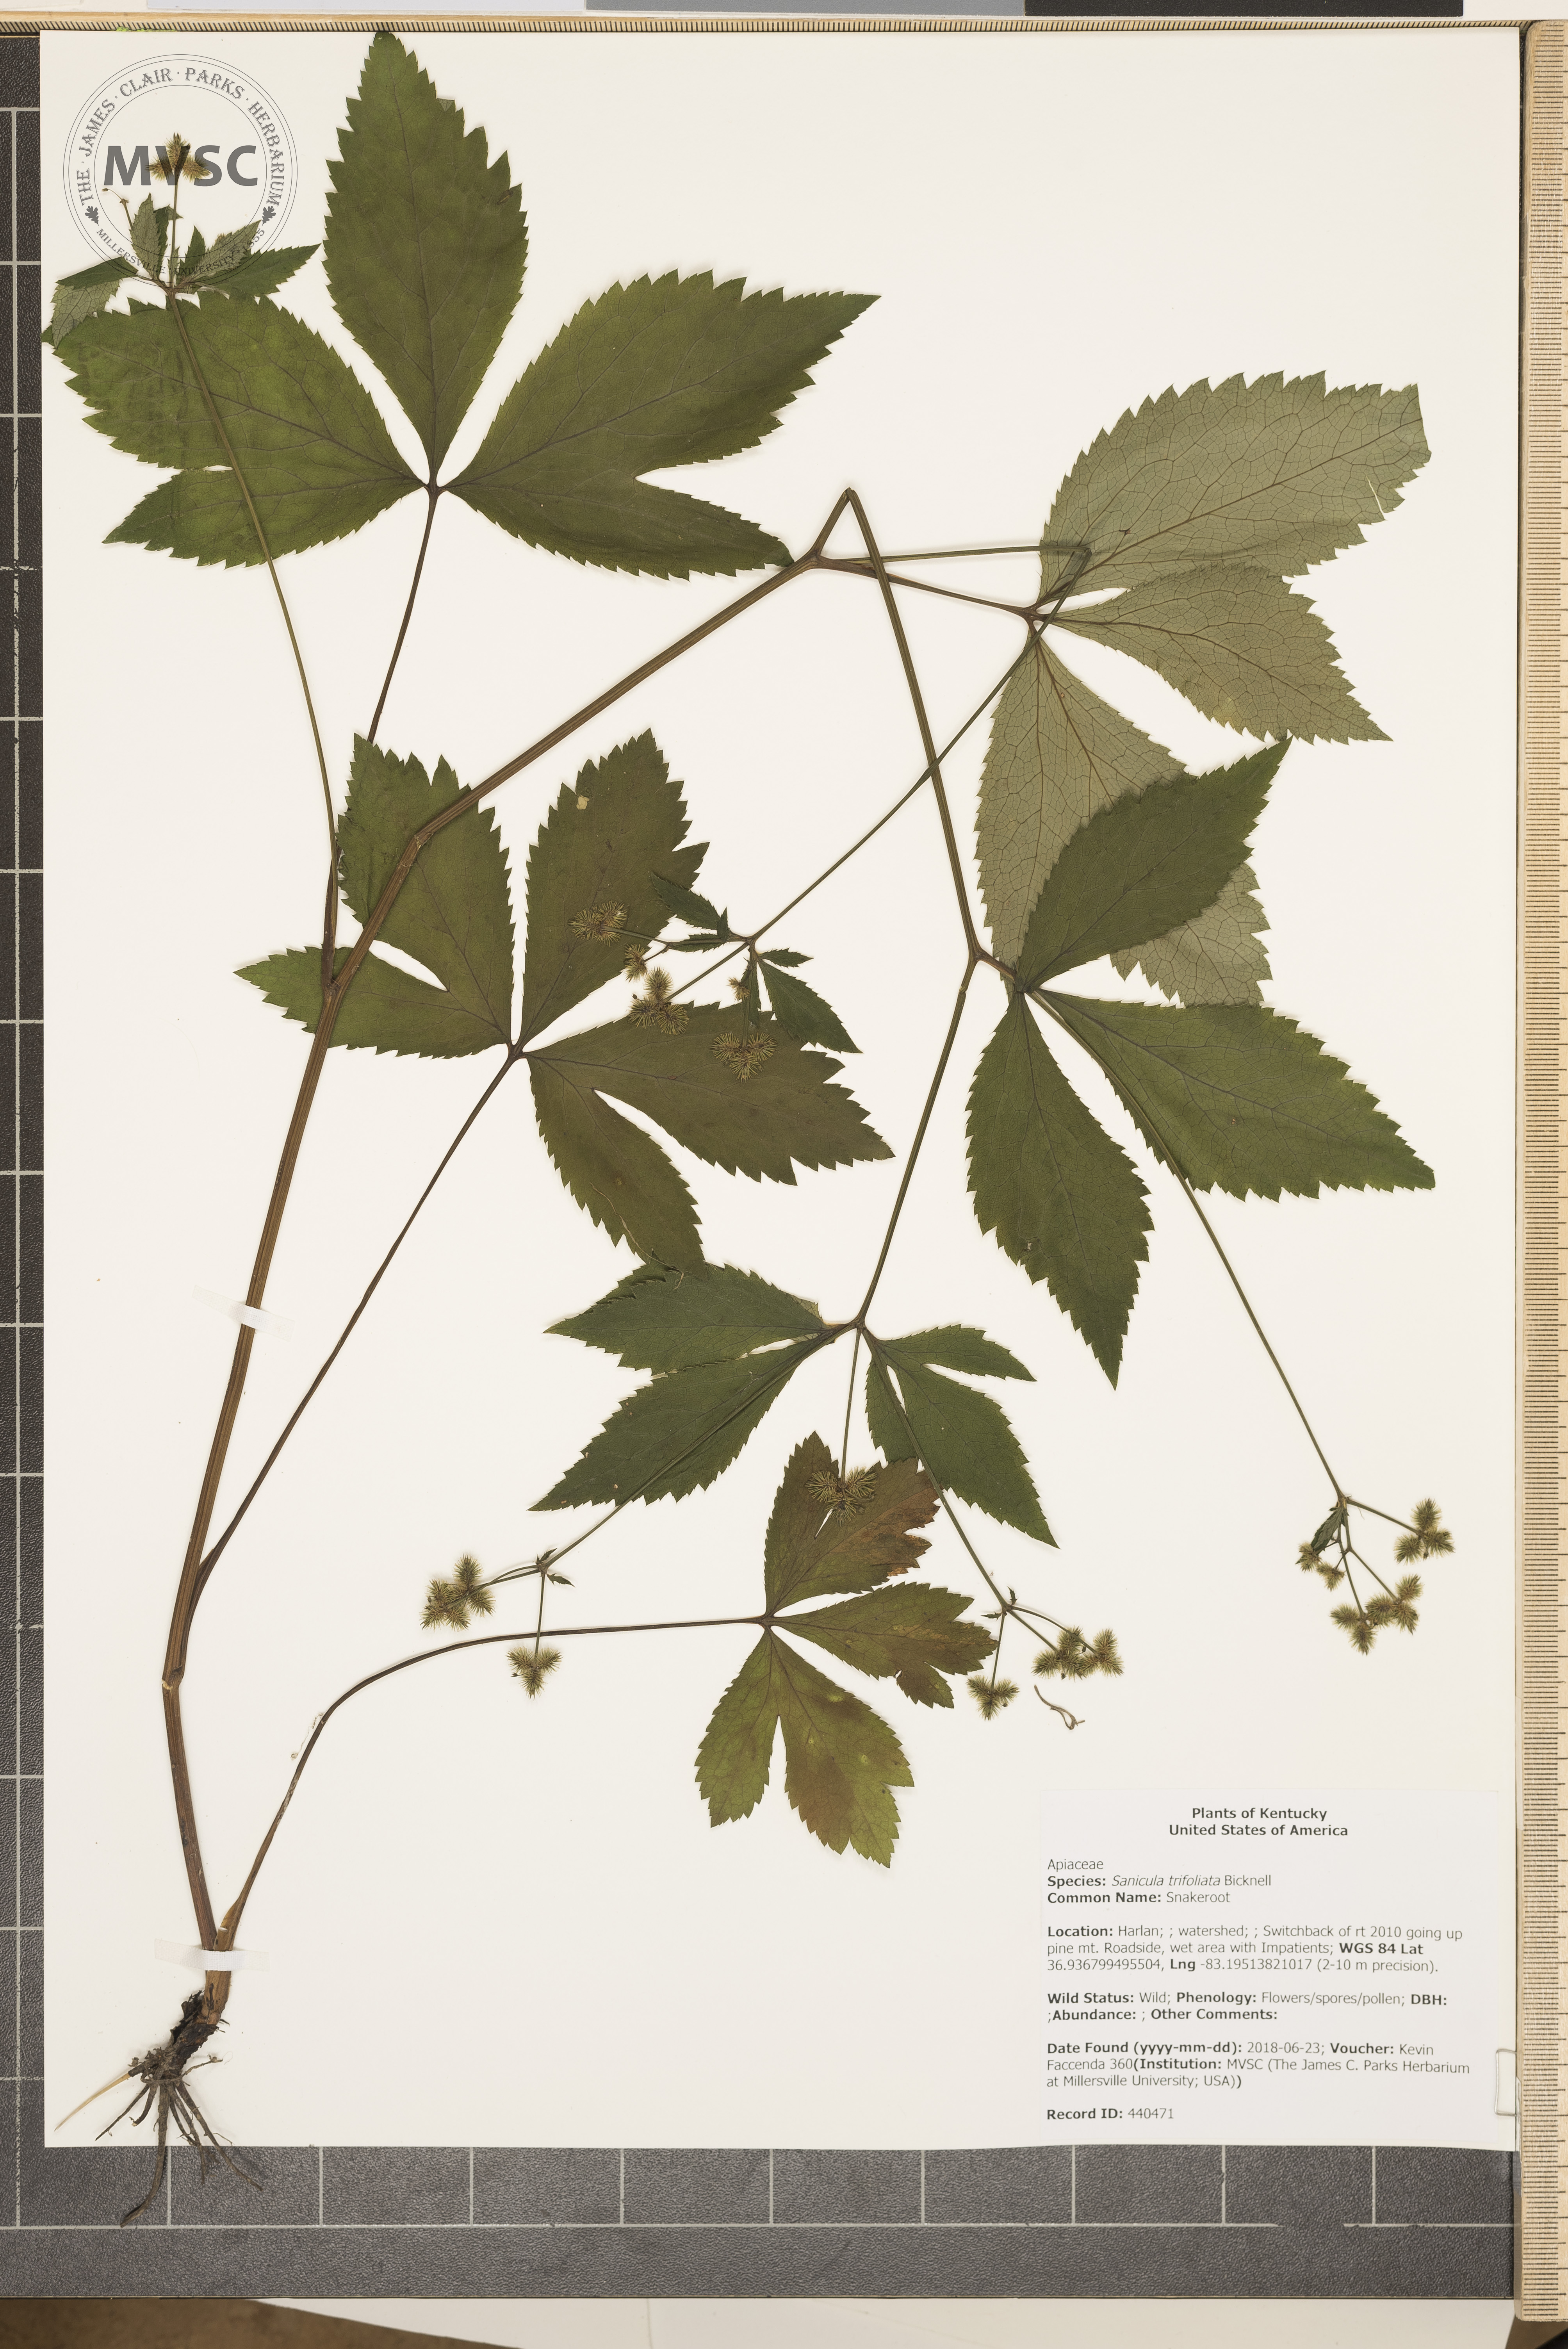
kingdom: Plantae
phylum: Tracheophyta
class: Magnoliopsida
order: Apiales
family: Apiaceae
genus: Sanicula
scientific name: Sanicula trifoliata
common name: Snakeroot
